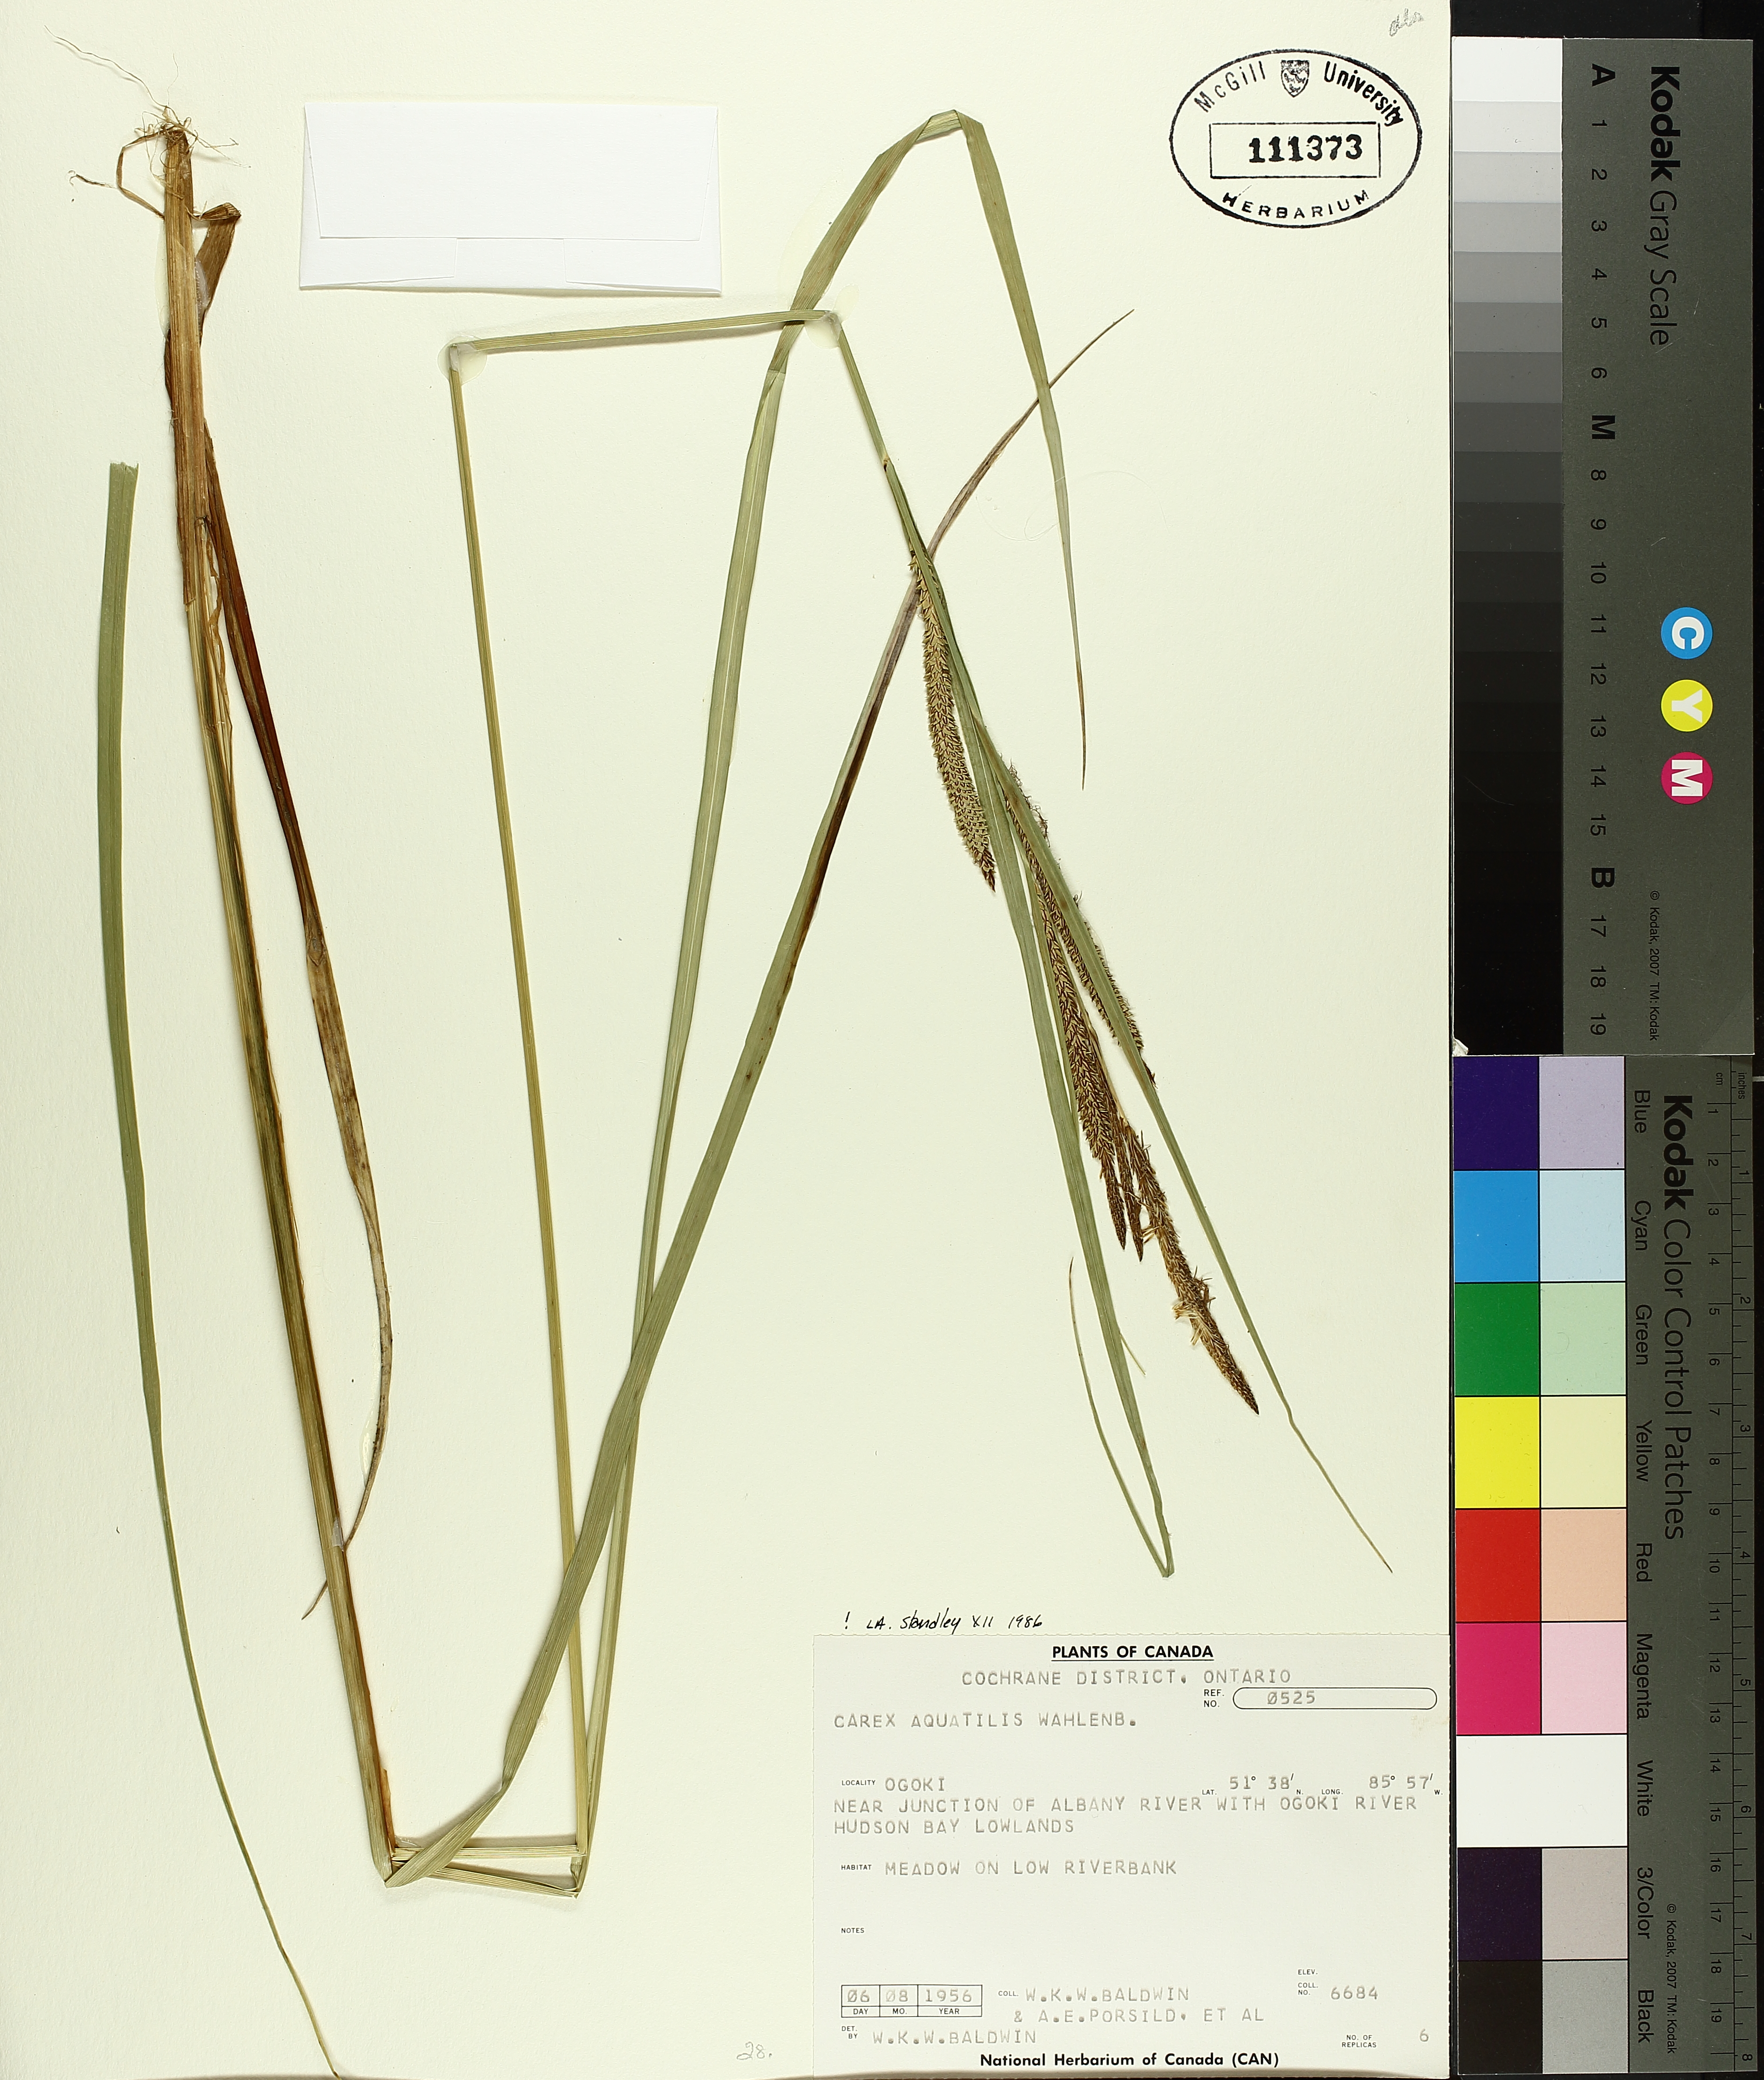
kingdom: Plantae
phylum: Tracheophyta
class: Liliopsida
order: Poales
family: Cyperaceae
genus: Carex
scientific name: Carex aquatilis
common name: Water sedge
